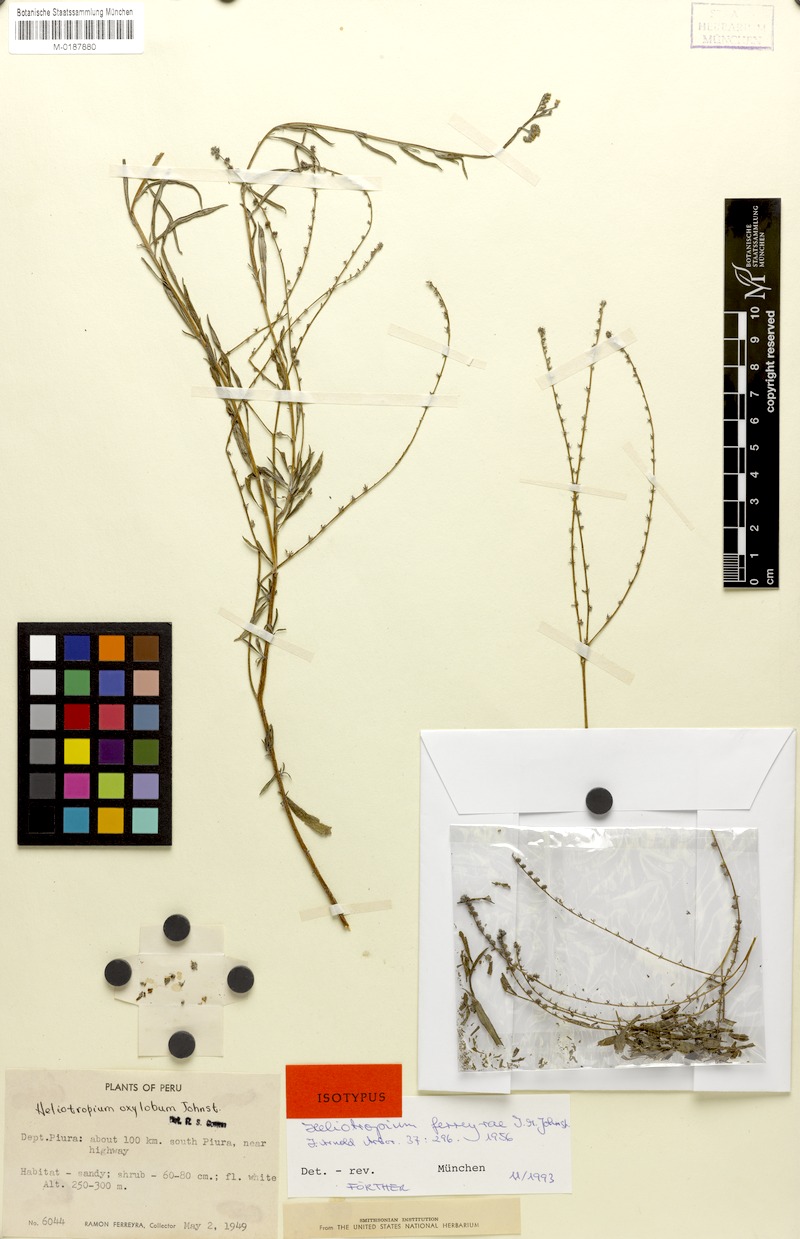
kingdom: Plantae
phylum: Tracheophyta
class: Magnoliopsida
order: Boraginales
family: Heliotropiaceae
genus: Euploca
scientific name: Euploca ferreyrae
